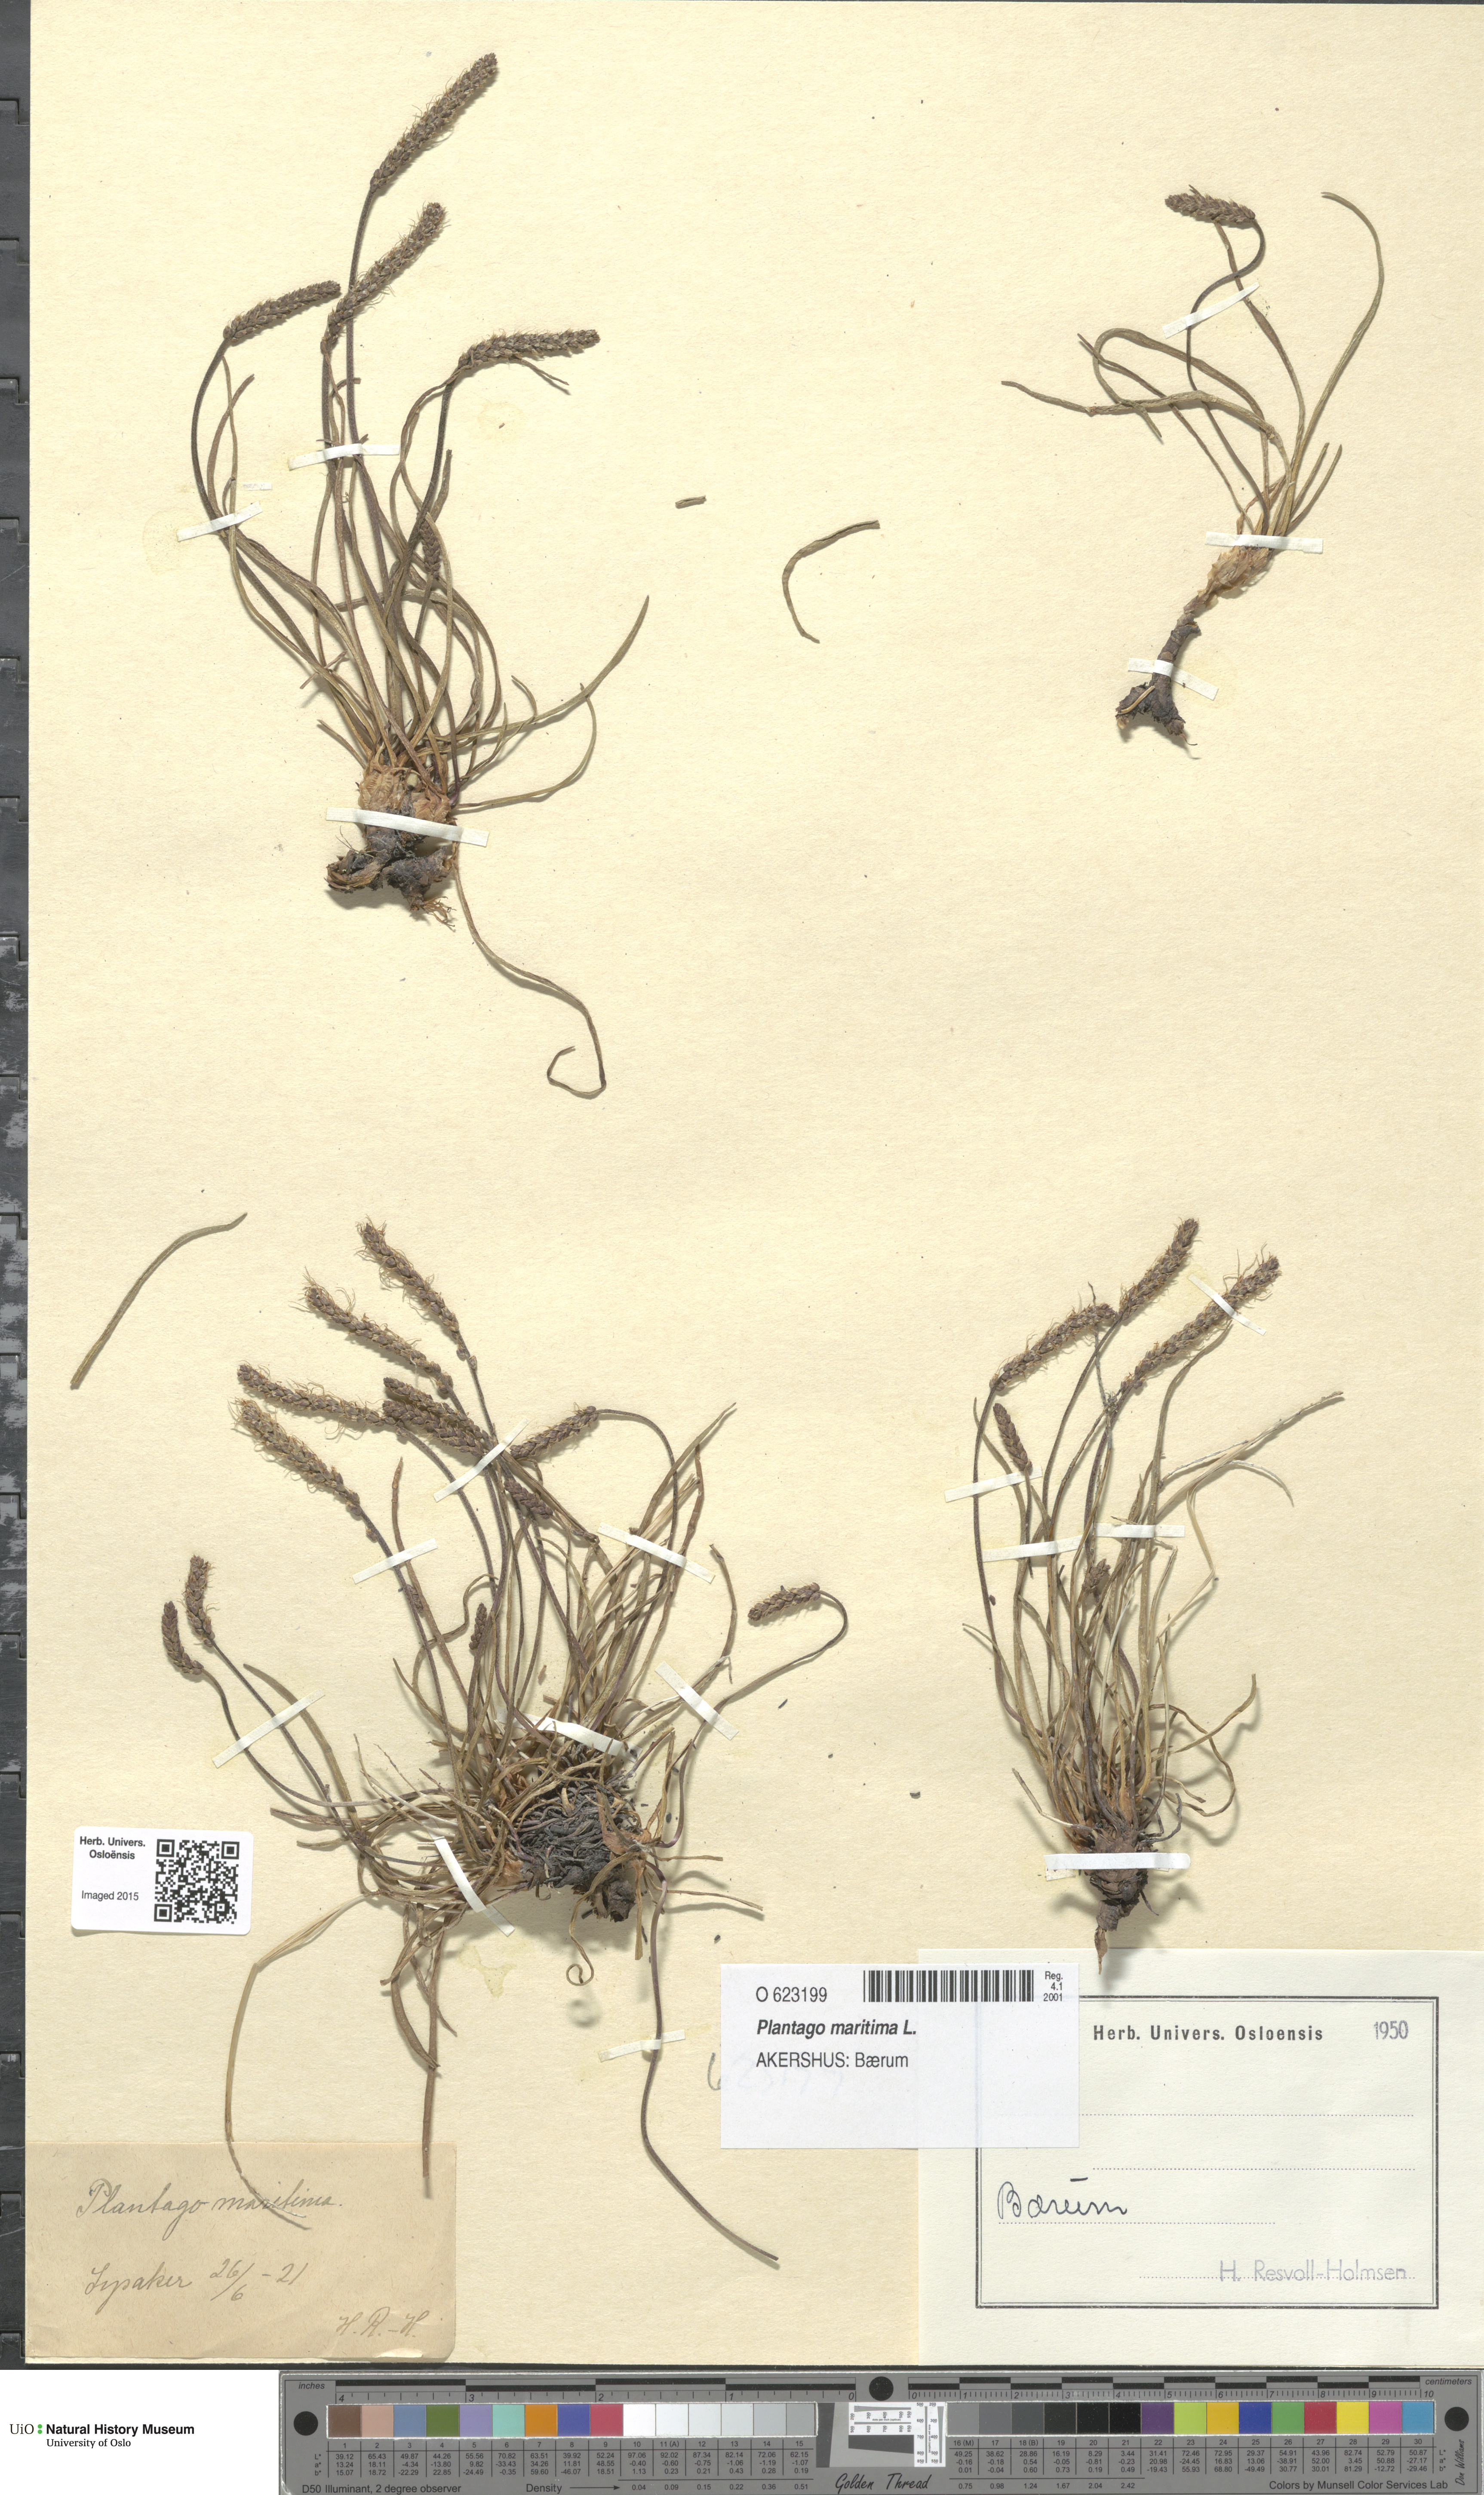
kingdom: Plantae
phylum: Tracheophyta
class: Magnoliopsida
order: Lamiales
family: Plantaginaceae
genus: Plantago
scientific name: Plantago maritima
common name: Sea plantain
